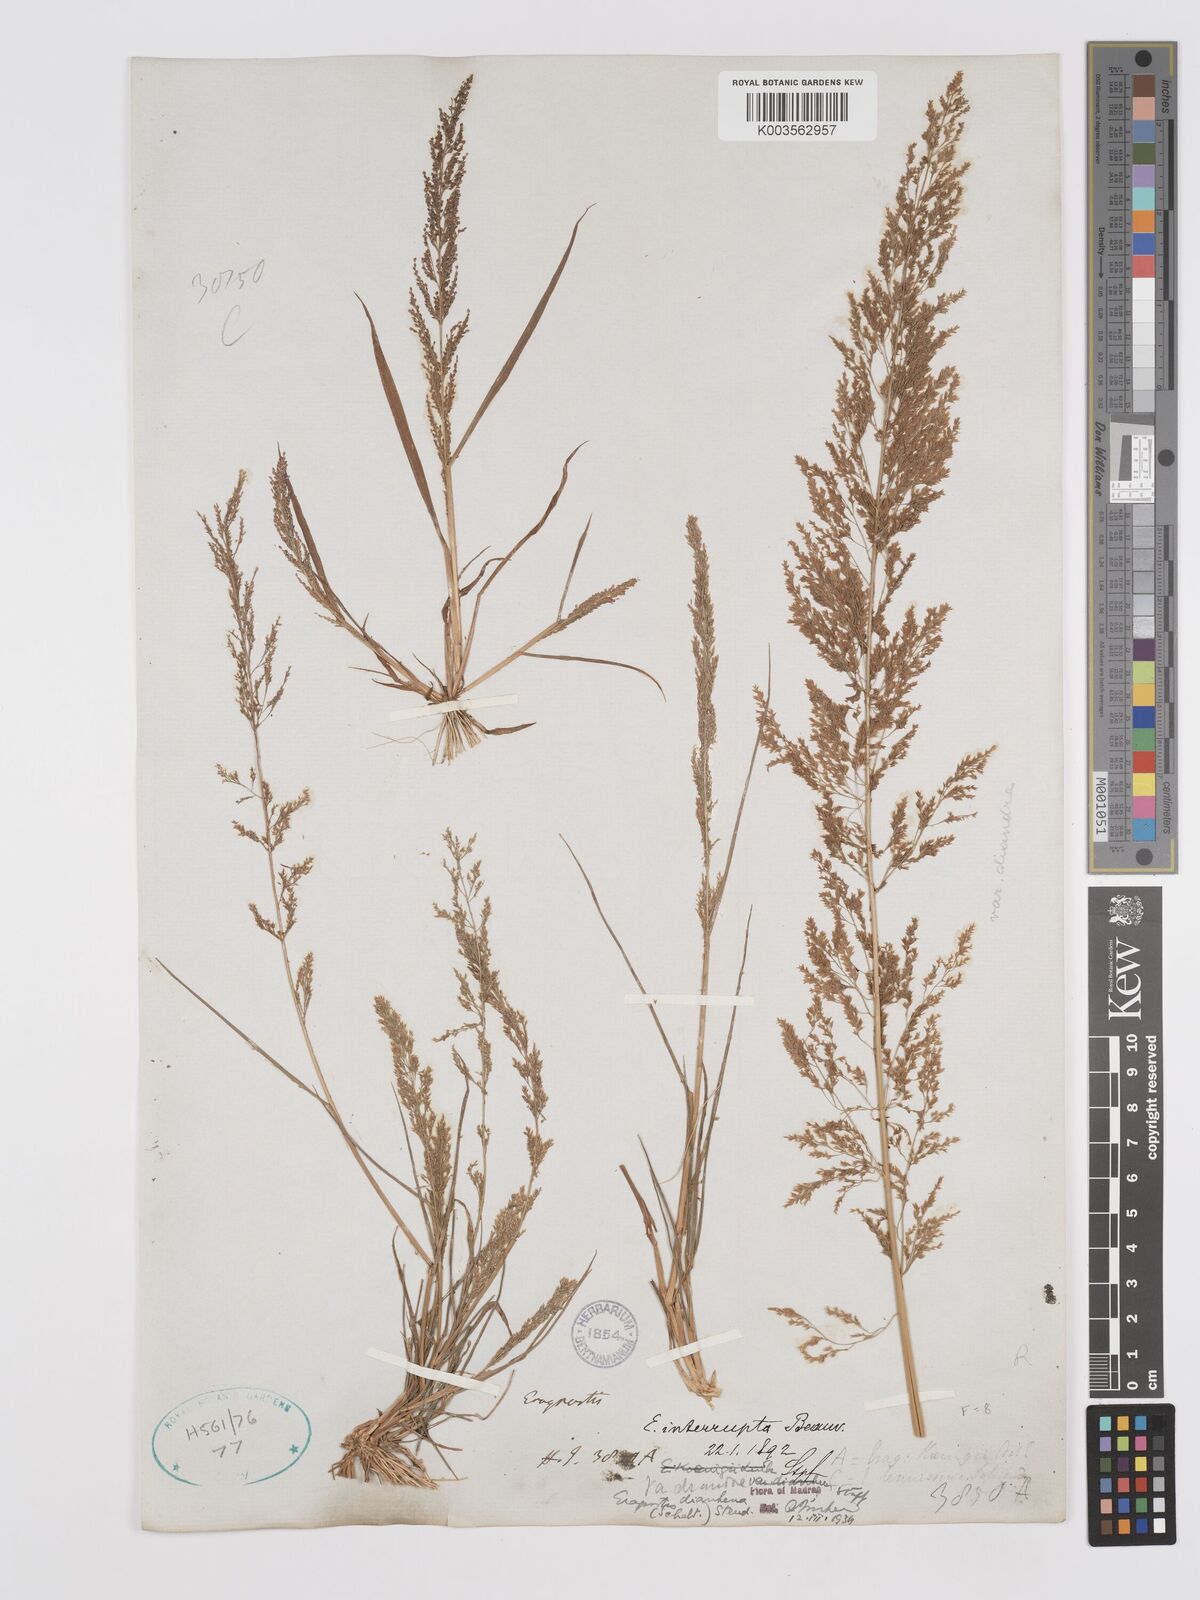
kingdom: Plantae
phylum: Tracheophyta
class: Liliopsida
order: Poales
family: Poaceae
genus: Eragrostis
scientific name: Eragrostis japonica
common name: Pond lovegrass
